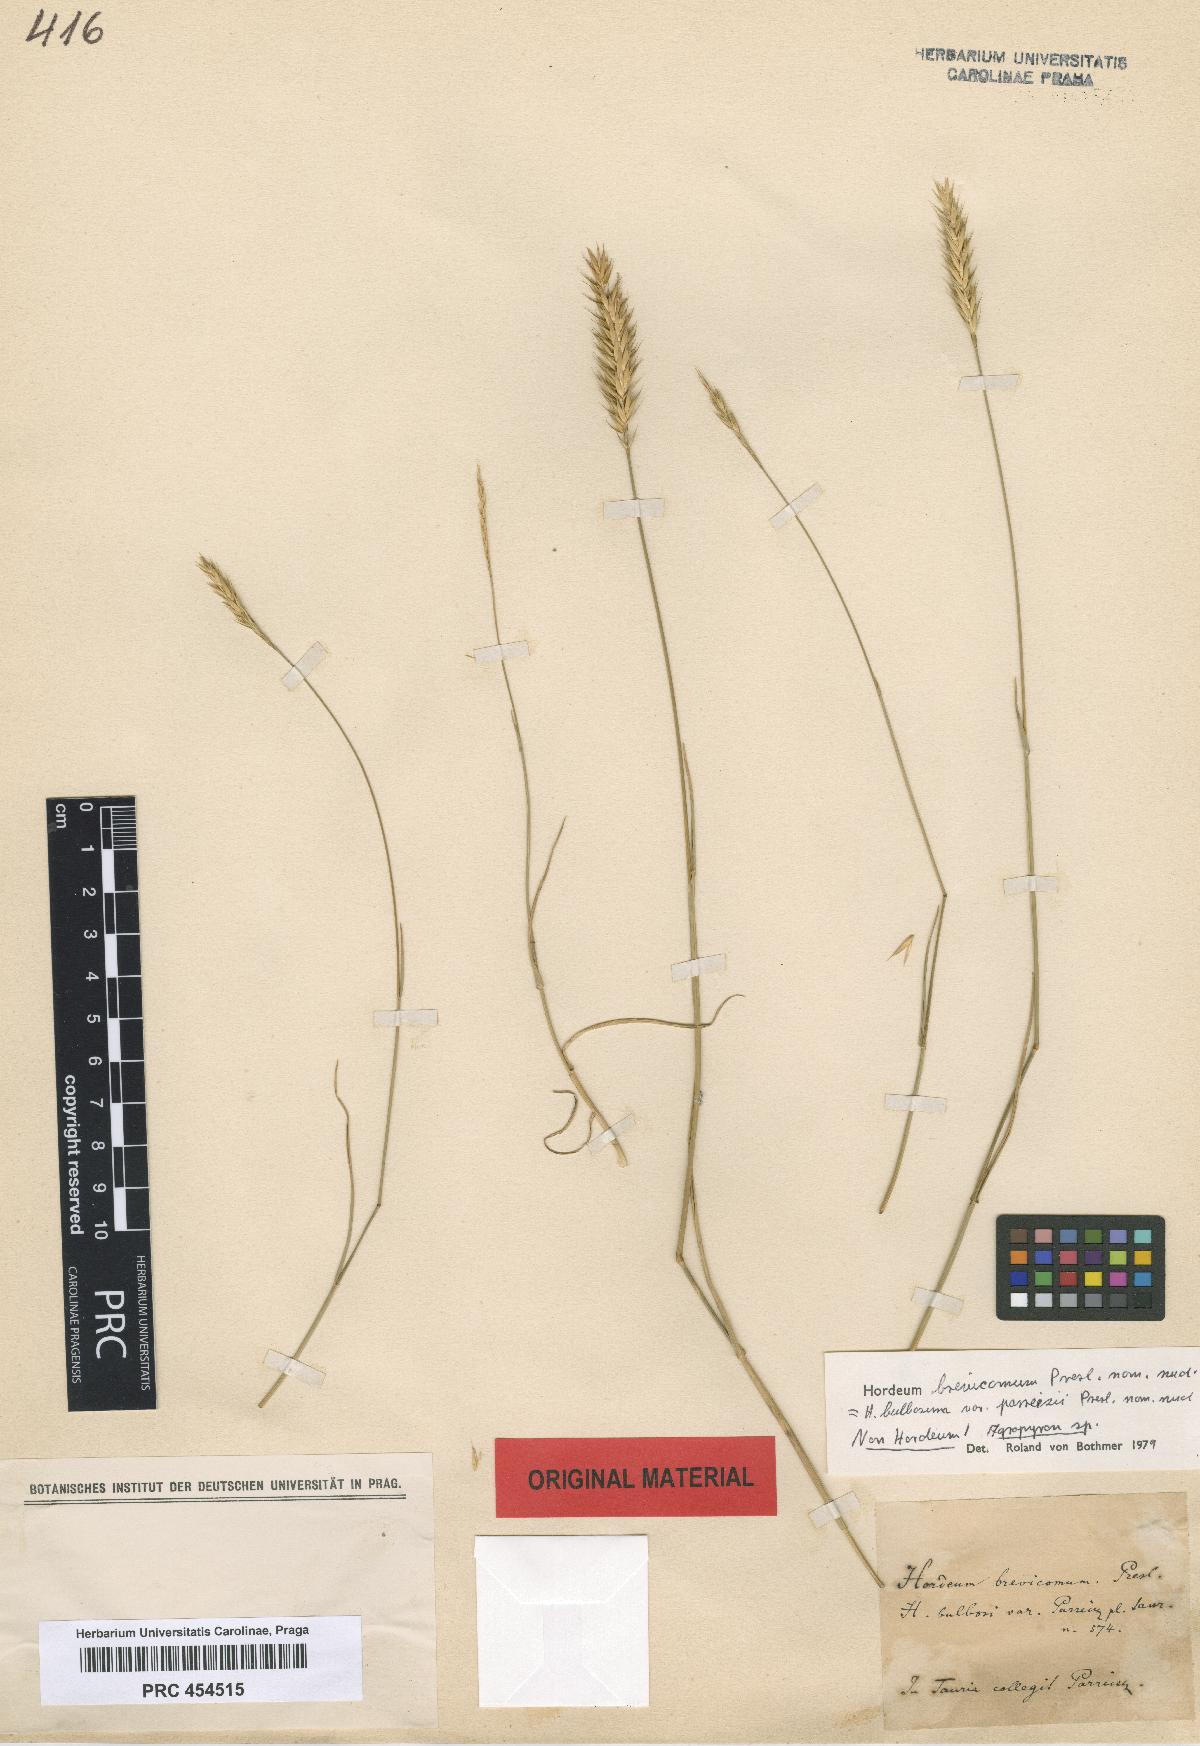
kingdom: Plantae
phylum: Tracheophyta
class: Liliopsida
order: Poales
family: Poaceae
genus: Hordeum
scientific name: Hordeum bulbosum
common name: Bulbous barley
